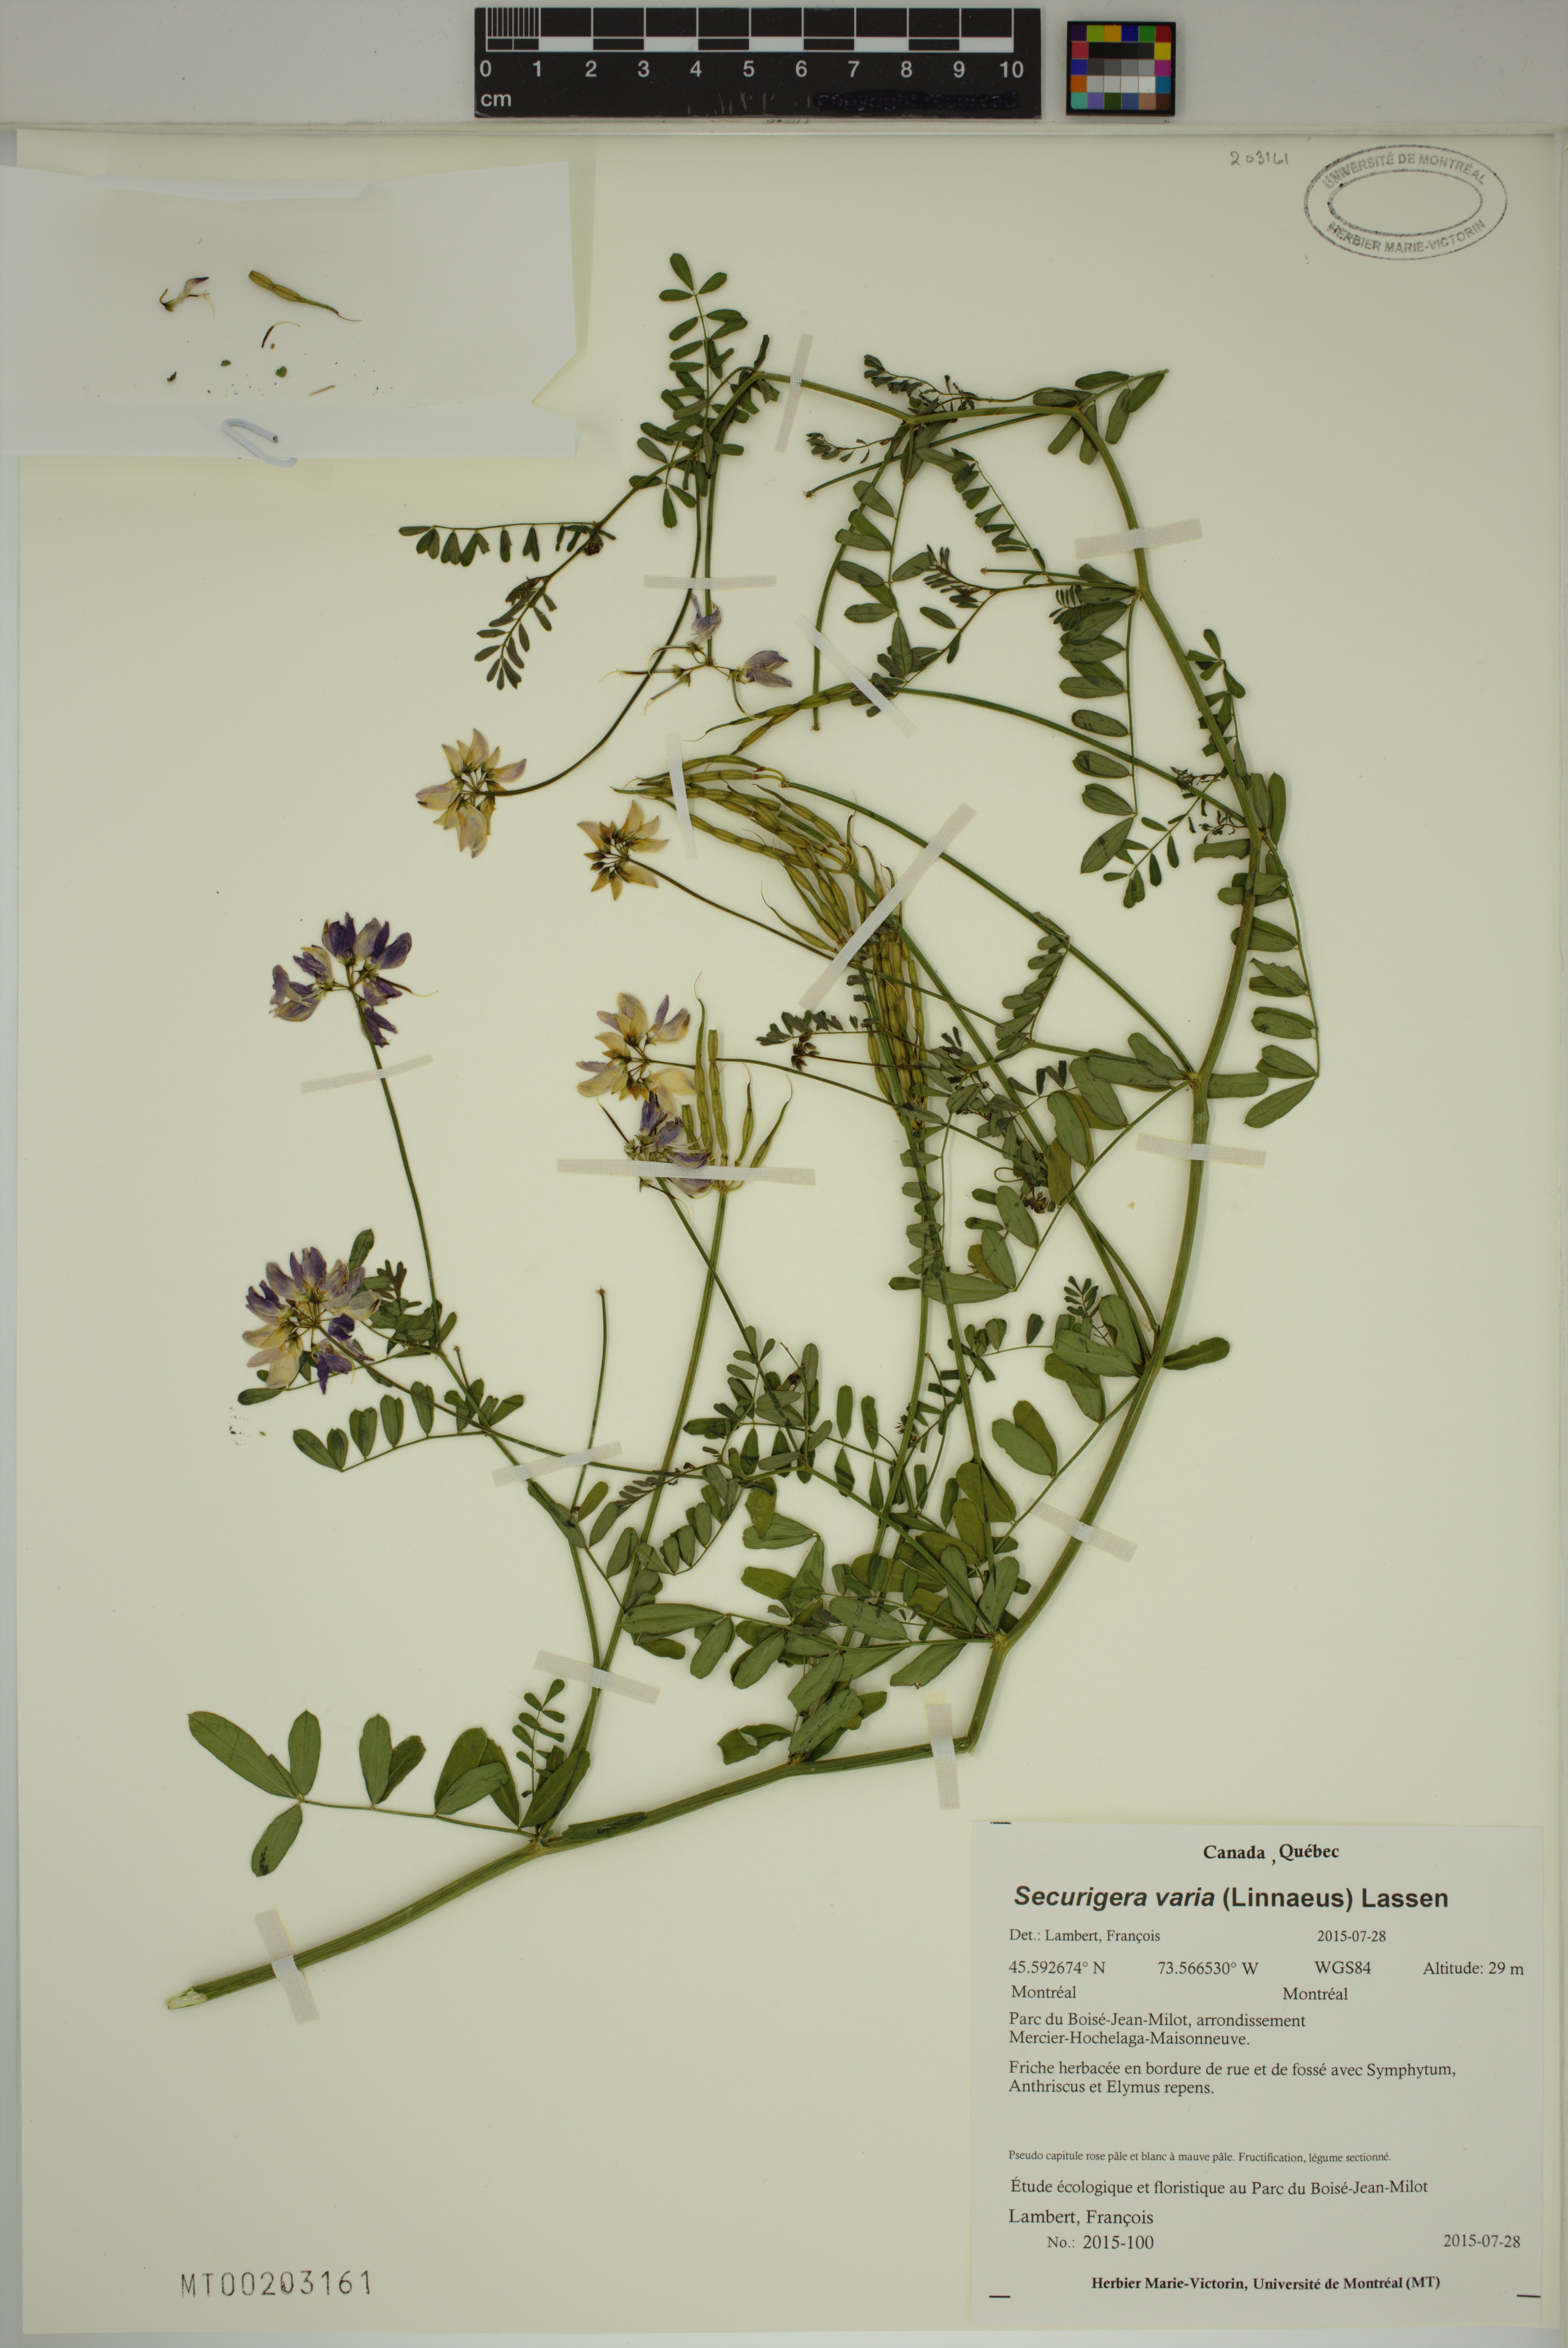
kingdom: Plantae
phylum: Tracheophyta
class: Magnoliopsida
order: Fabales
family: Fabaceae
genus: Coronilla
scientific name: Coronilla varia
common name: Crownvetch
